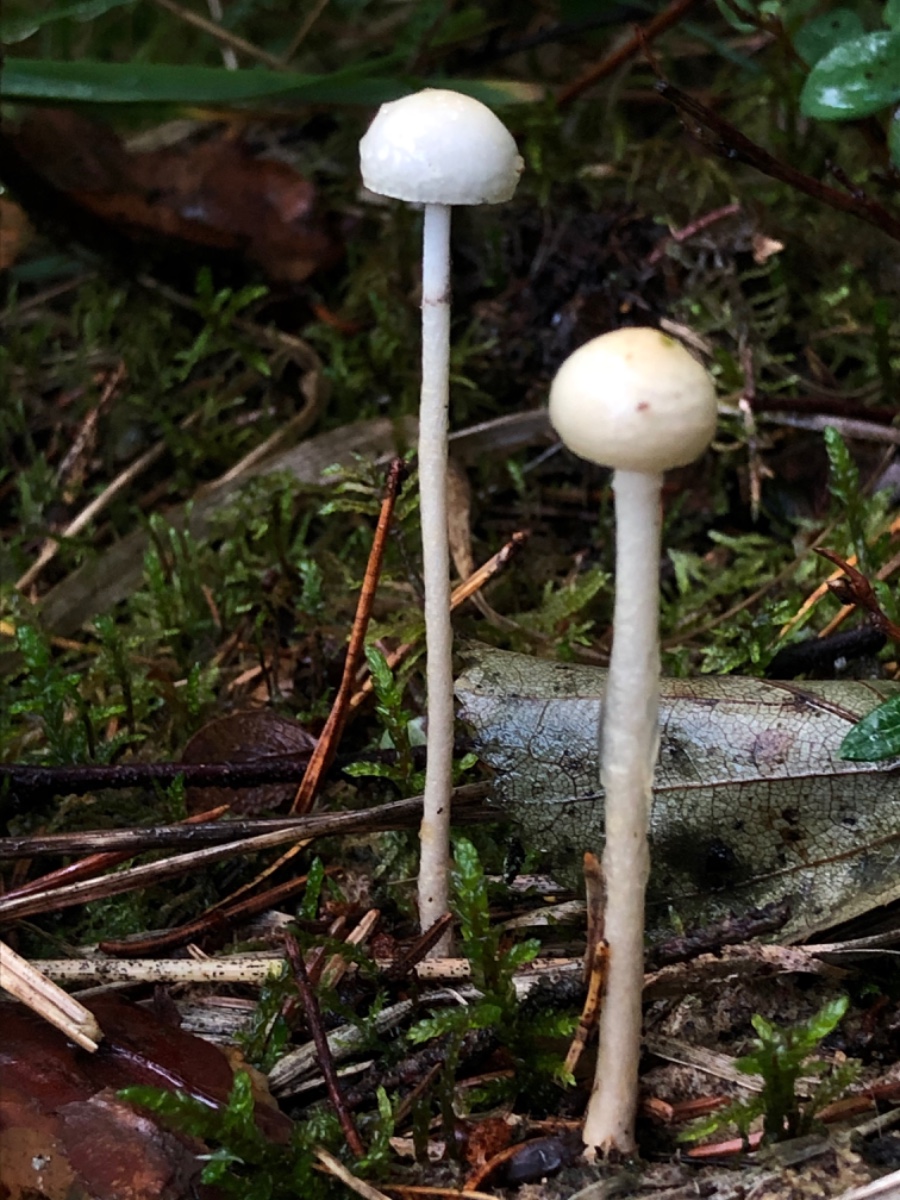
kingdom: Fungi
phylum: Basidiomycota
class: Agaricomycetes
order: Agaricales
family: Strophariaceae
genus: Protostropharia
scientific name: Protostropharia semiglobata
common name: halvkugleformet bredblad
